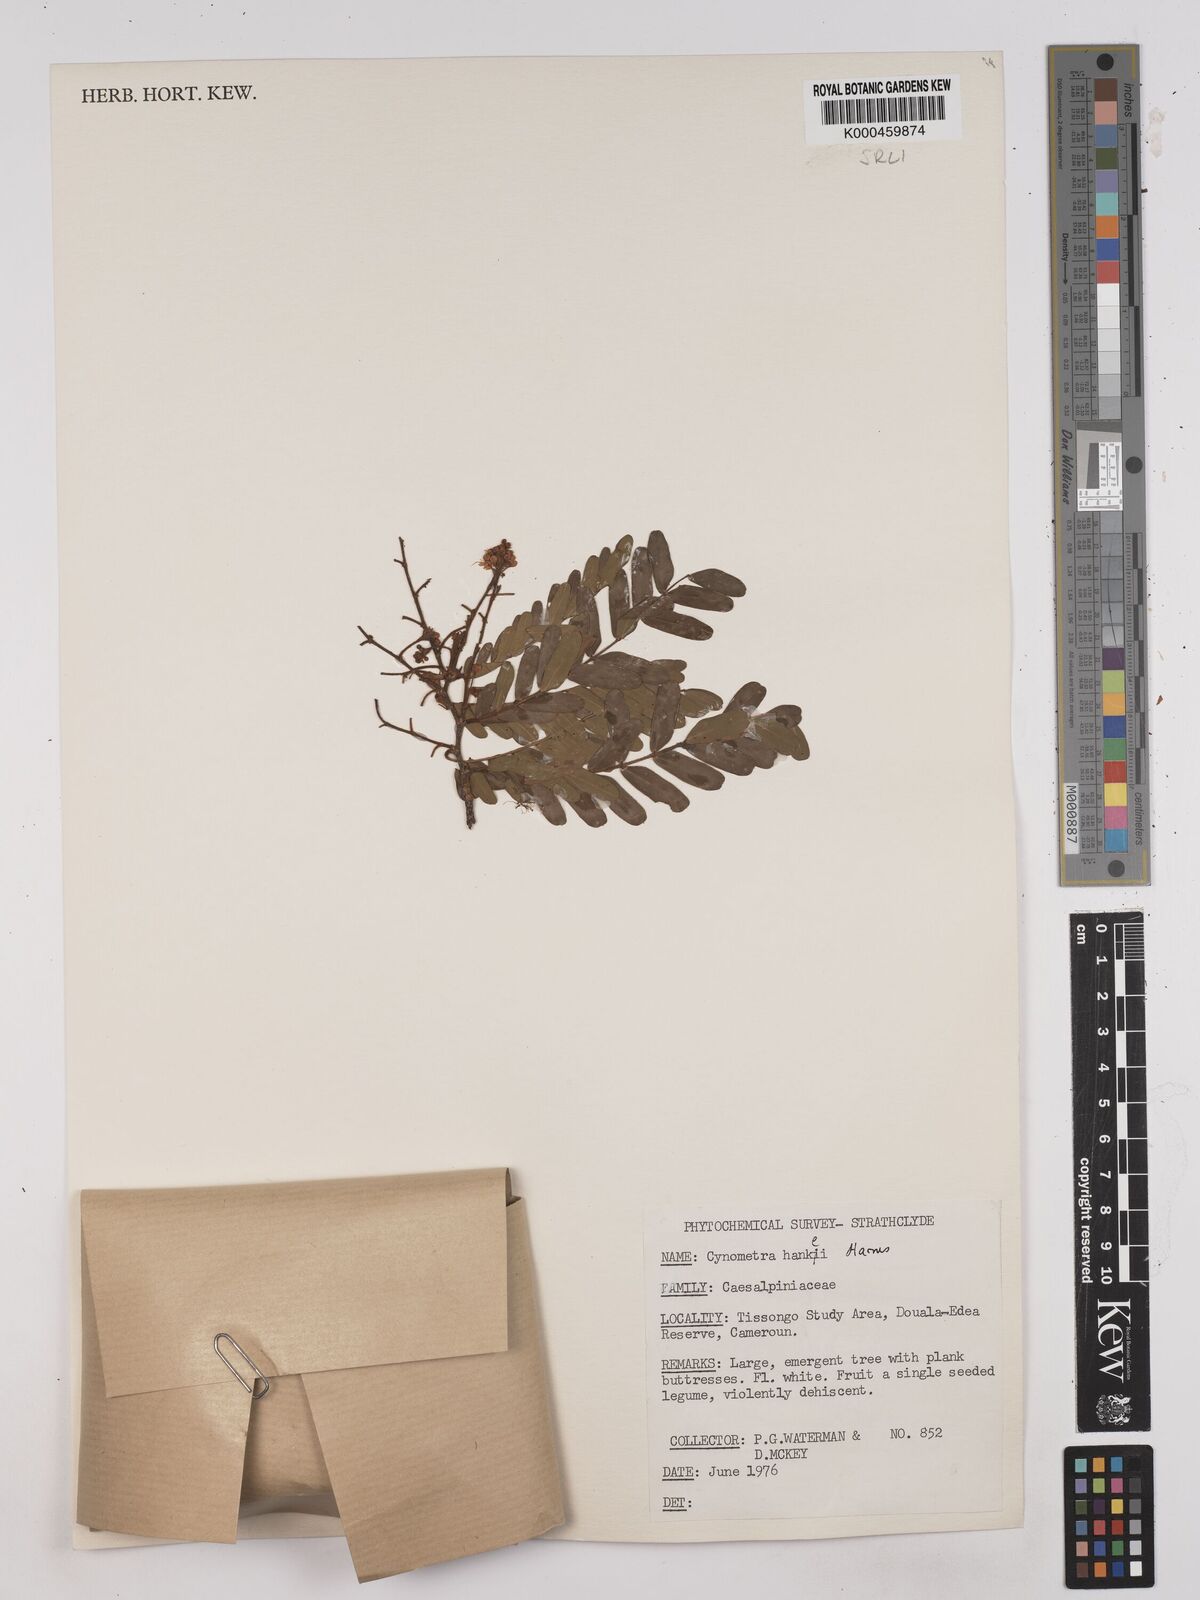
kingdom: Plantae
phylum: Tracheophyta
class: Magnoliopsida
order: Fabales
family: Fabaceae
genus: Cynometra
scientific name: Cynometra hankei
